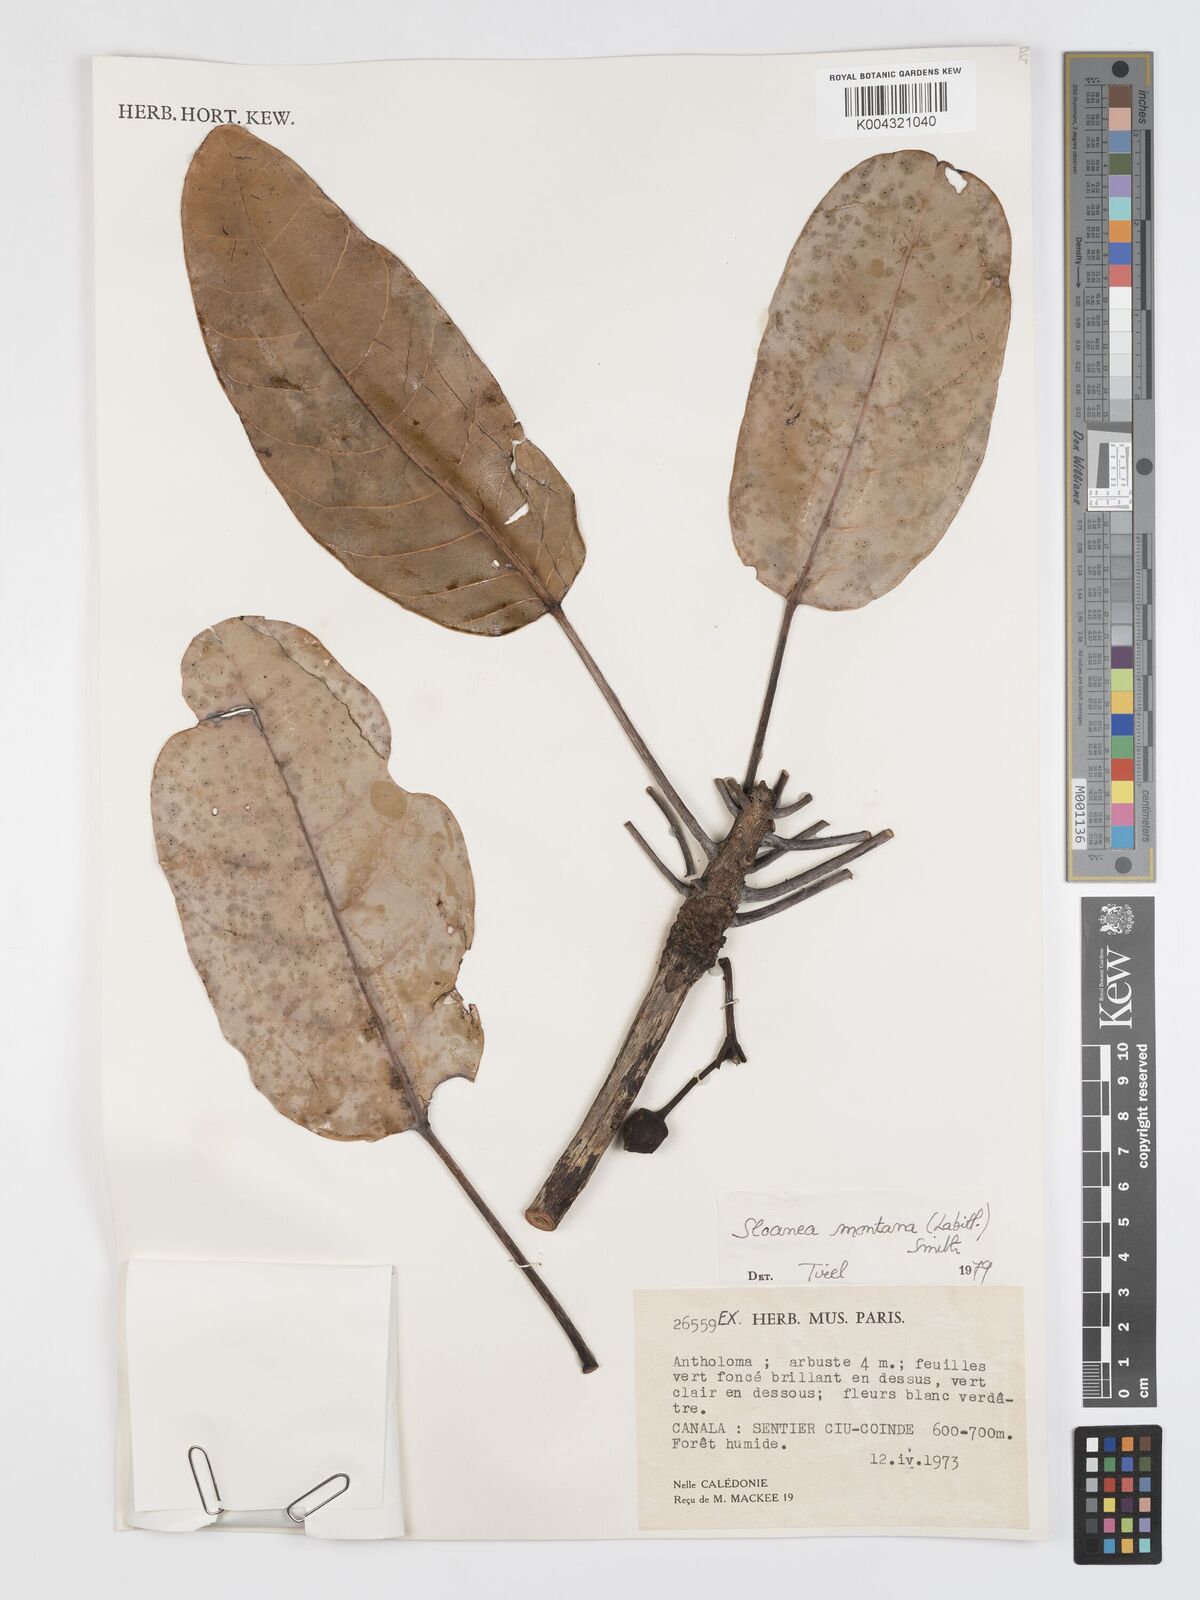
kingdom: Plantae
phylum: Tracheophyta
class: Magnoliopsida
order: Oxalidales
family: Elaeocarpaceae
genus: Sloanea
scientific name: Sloanea montana
